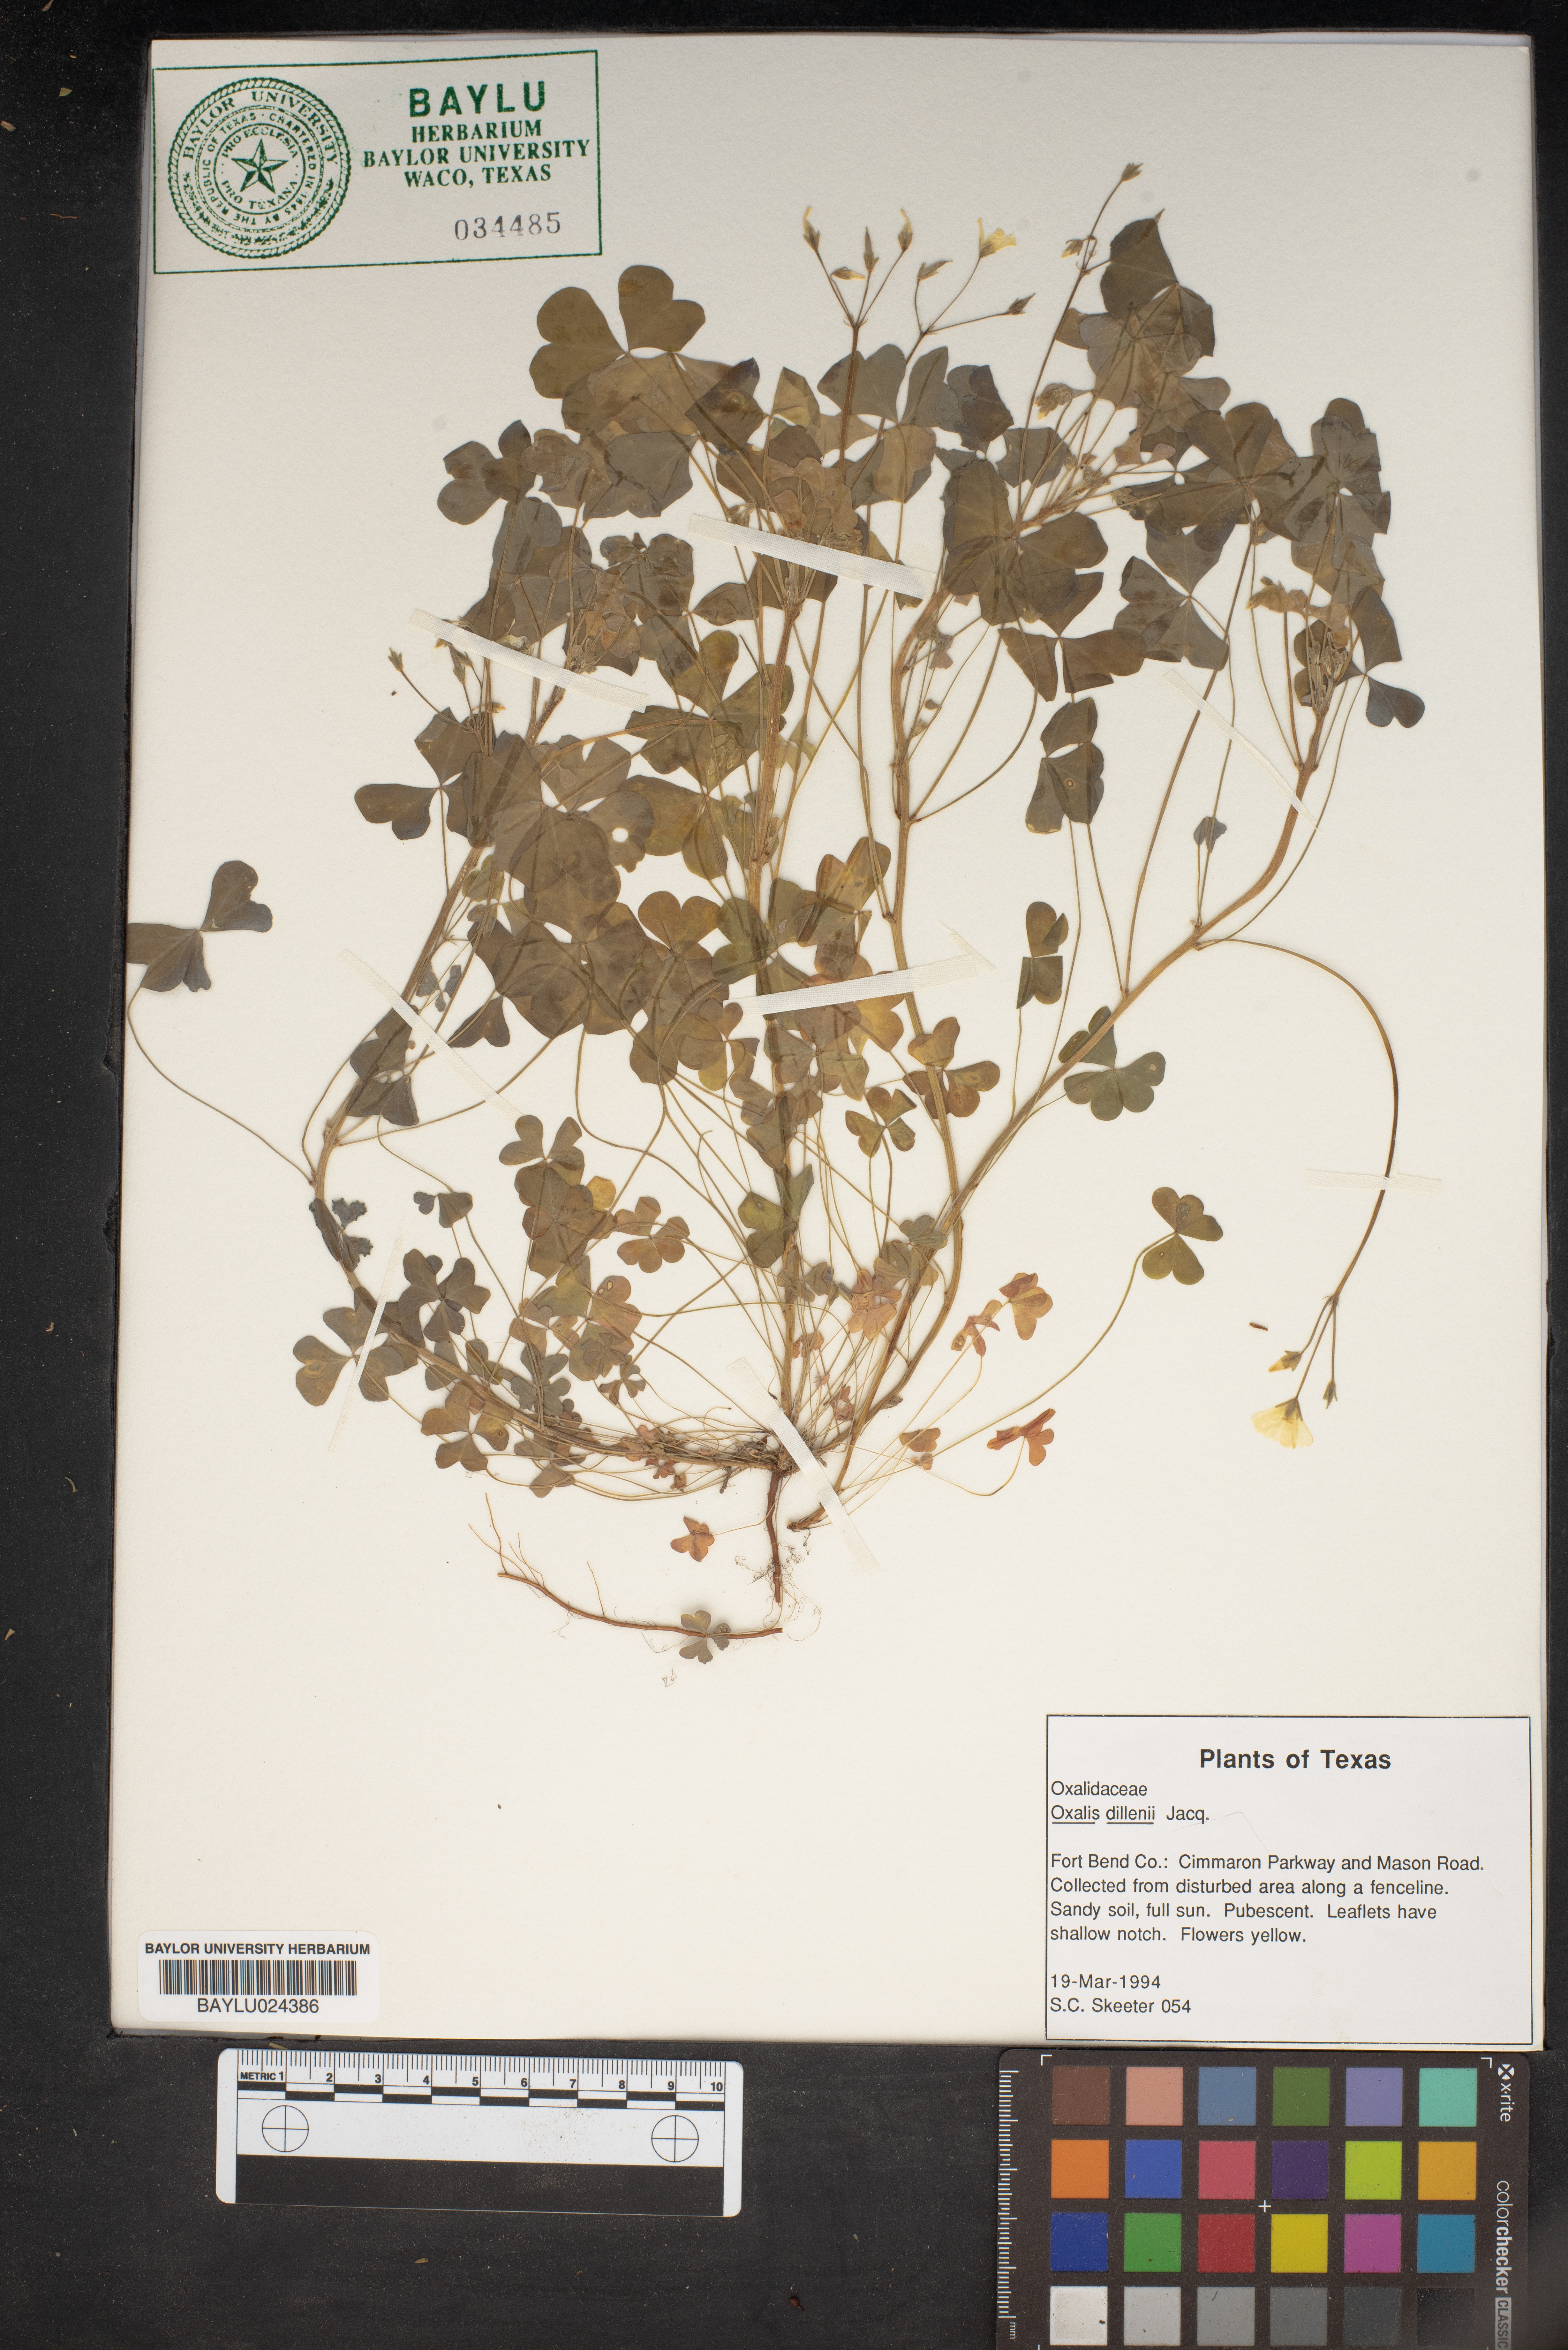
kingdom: Plantae
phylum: Tracheophyta
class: Magnoliopsida
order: Oxalidales
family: Oxalidaceae
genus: Oxalis
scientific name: Oxalis dillenii
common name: Sussex yellow-sorrel
